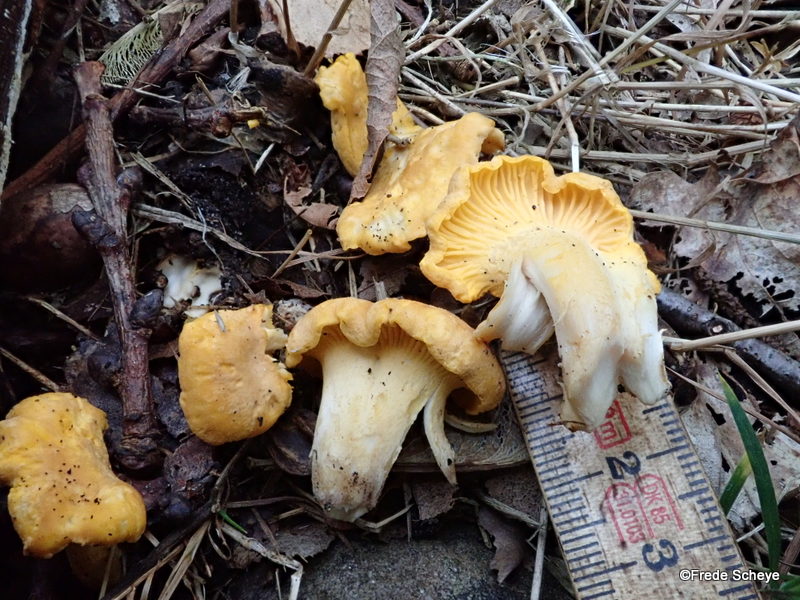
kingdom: Fungi
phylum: Basidiomycota
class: Agaricomycetes
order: Cantharellales
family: Hydnaceae
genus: Cantharellus
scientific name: Cantharellus cibarius
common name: almindelig kantarel
